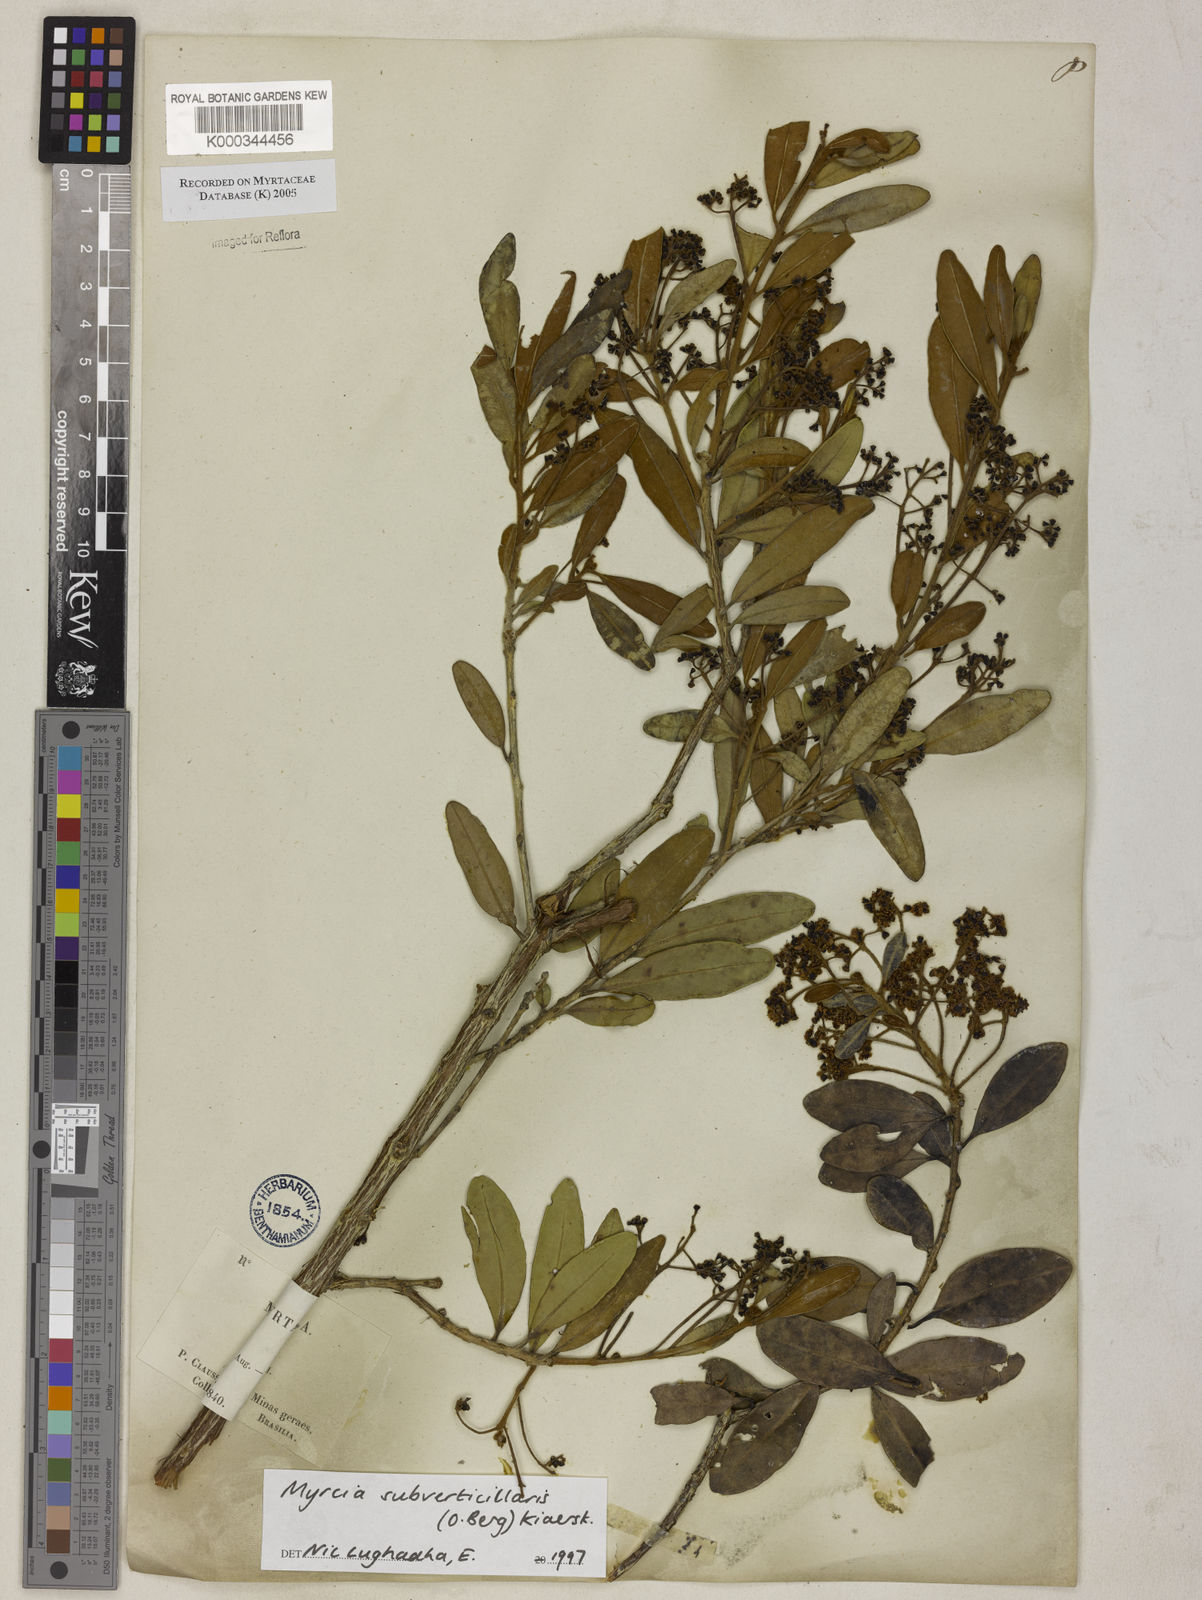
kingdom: Plantae
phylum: Tracheophyta
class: Magnoliopsida
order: Myrtales
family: Myrtaceae
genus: Myrcia
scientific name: Myrcia
